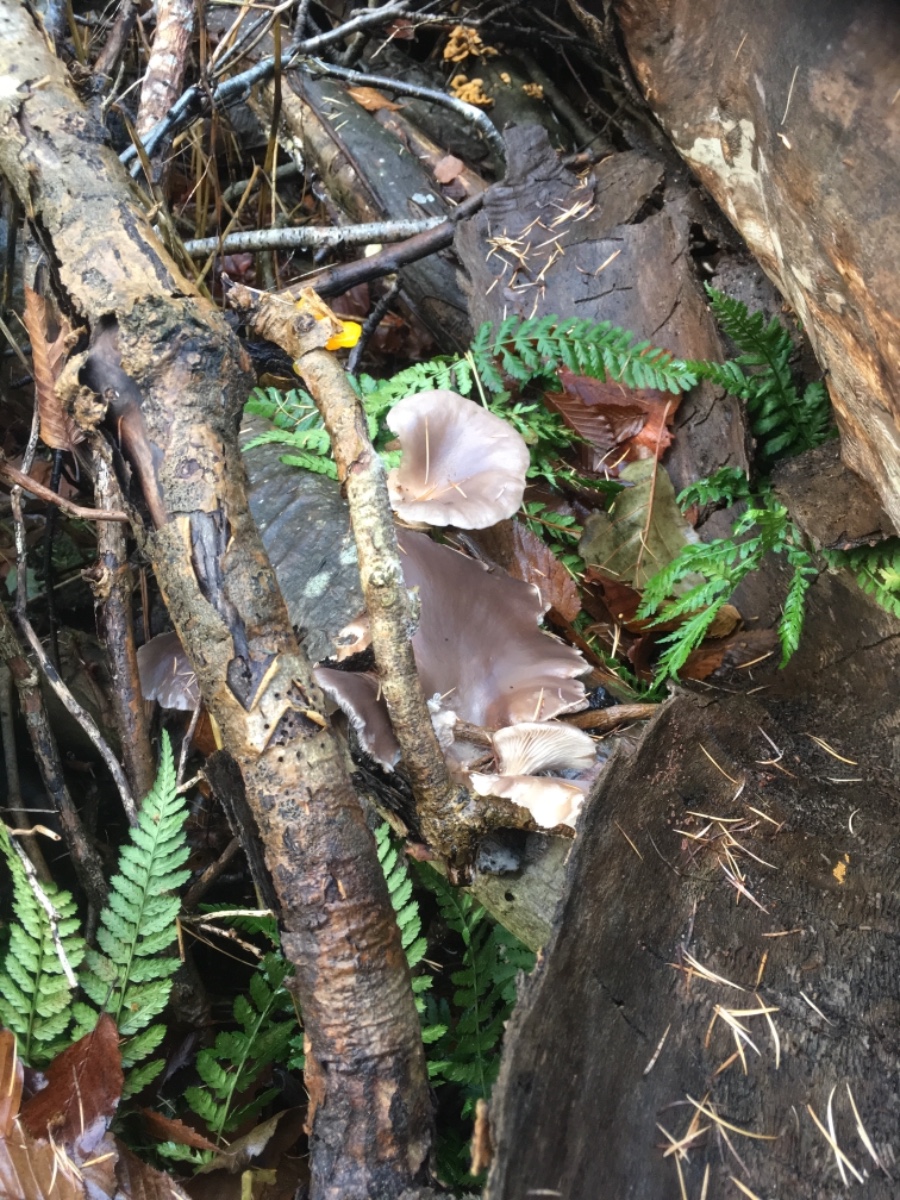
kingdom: Fungi
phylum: Basidiomycota
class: Agaricomycetes
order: Agaricales
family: Pleurotaceae
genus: Pleurotus
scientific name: Pleurotus ostreatus
